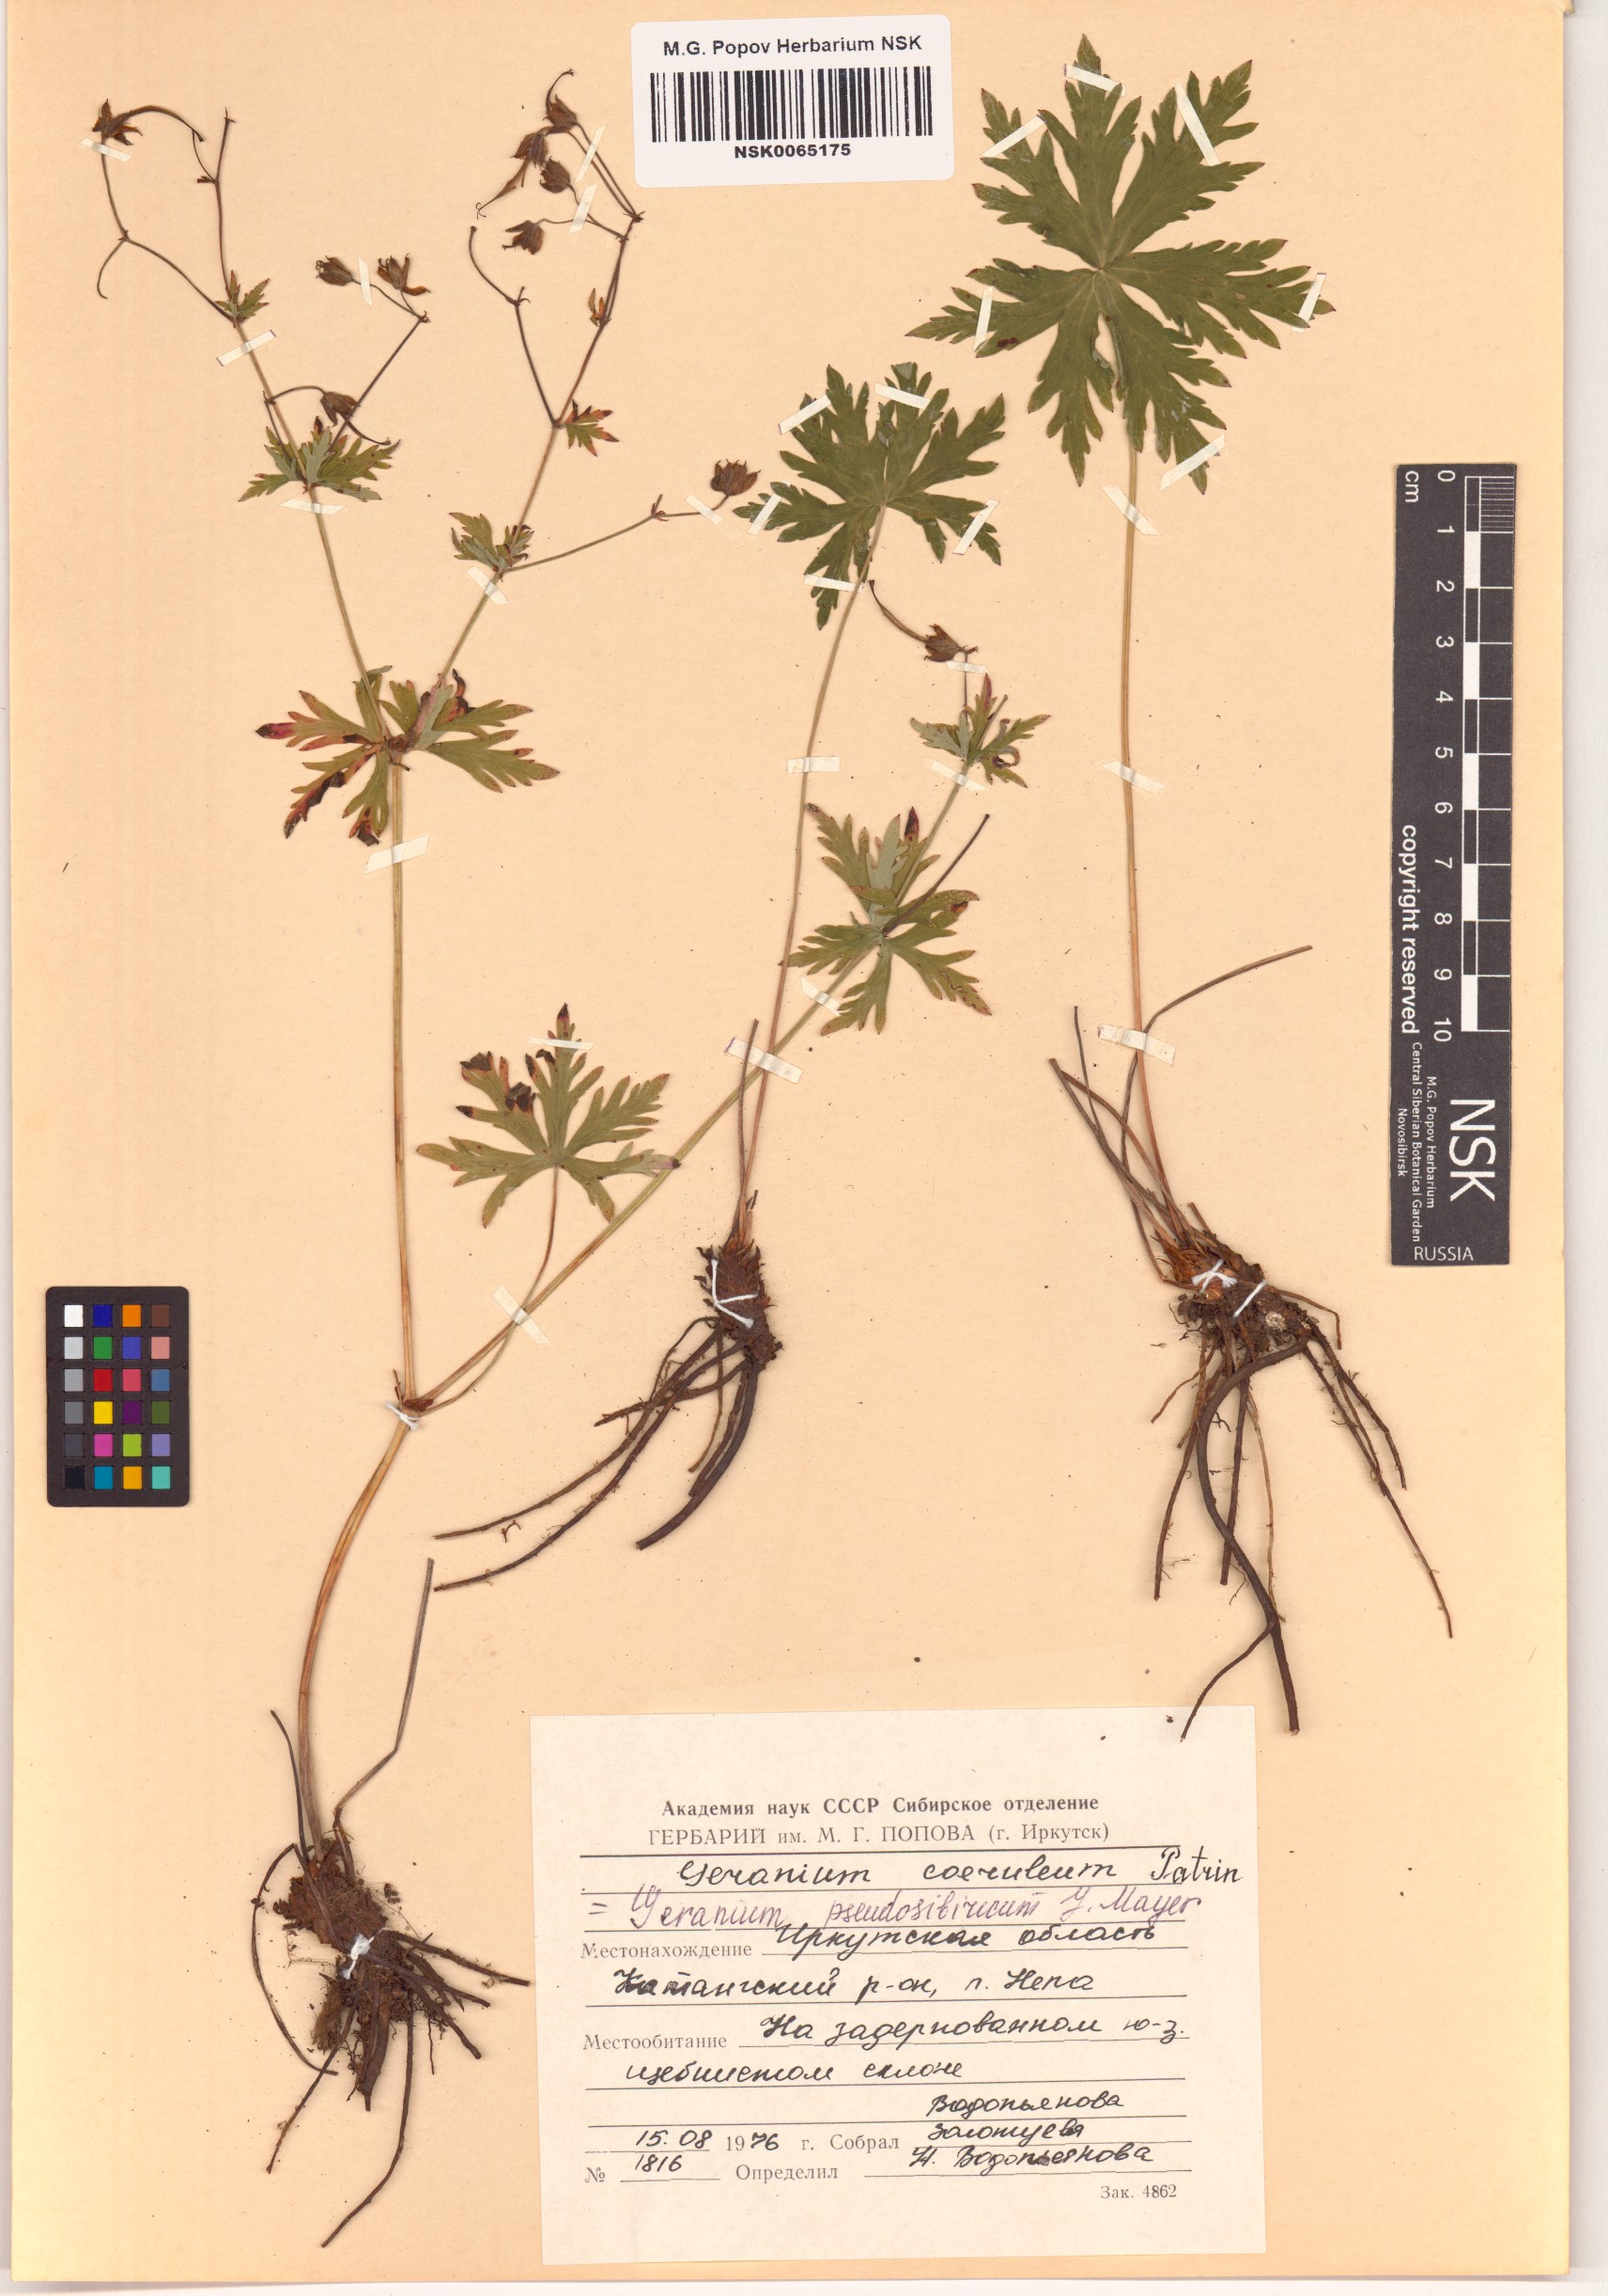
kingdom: Plantae
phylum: Tracheophyta
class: Magnoliopsida
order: Geraniales
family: Geraniaceae
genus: Geranium
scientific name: Geranium pseudosibiricum
